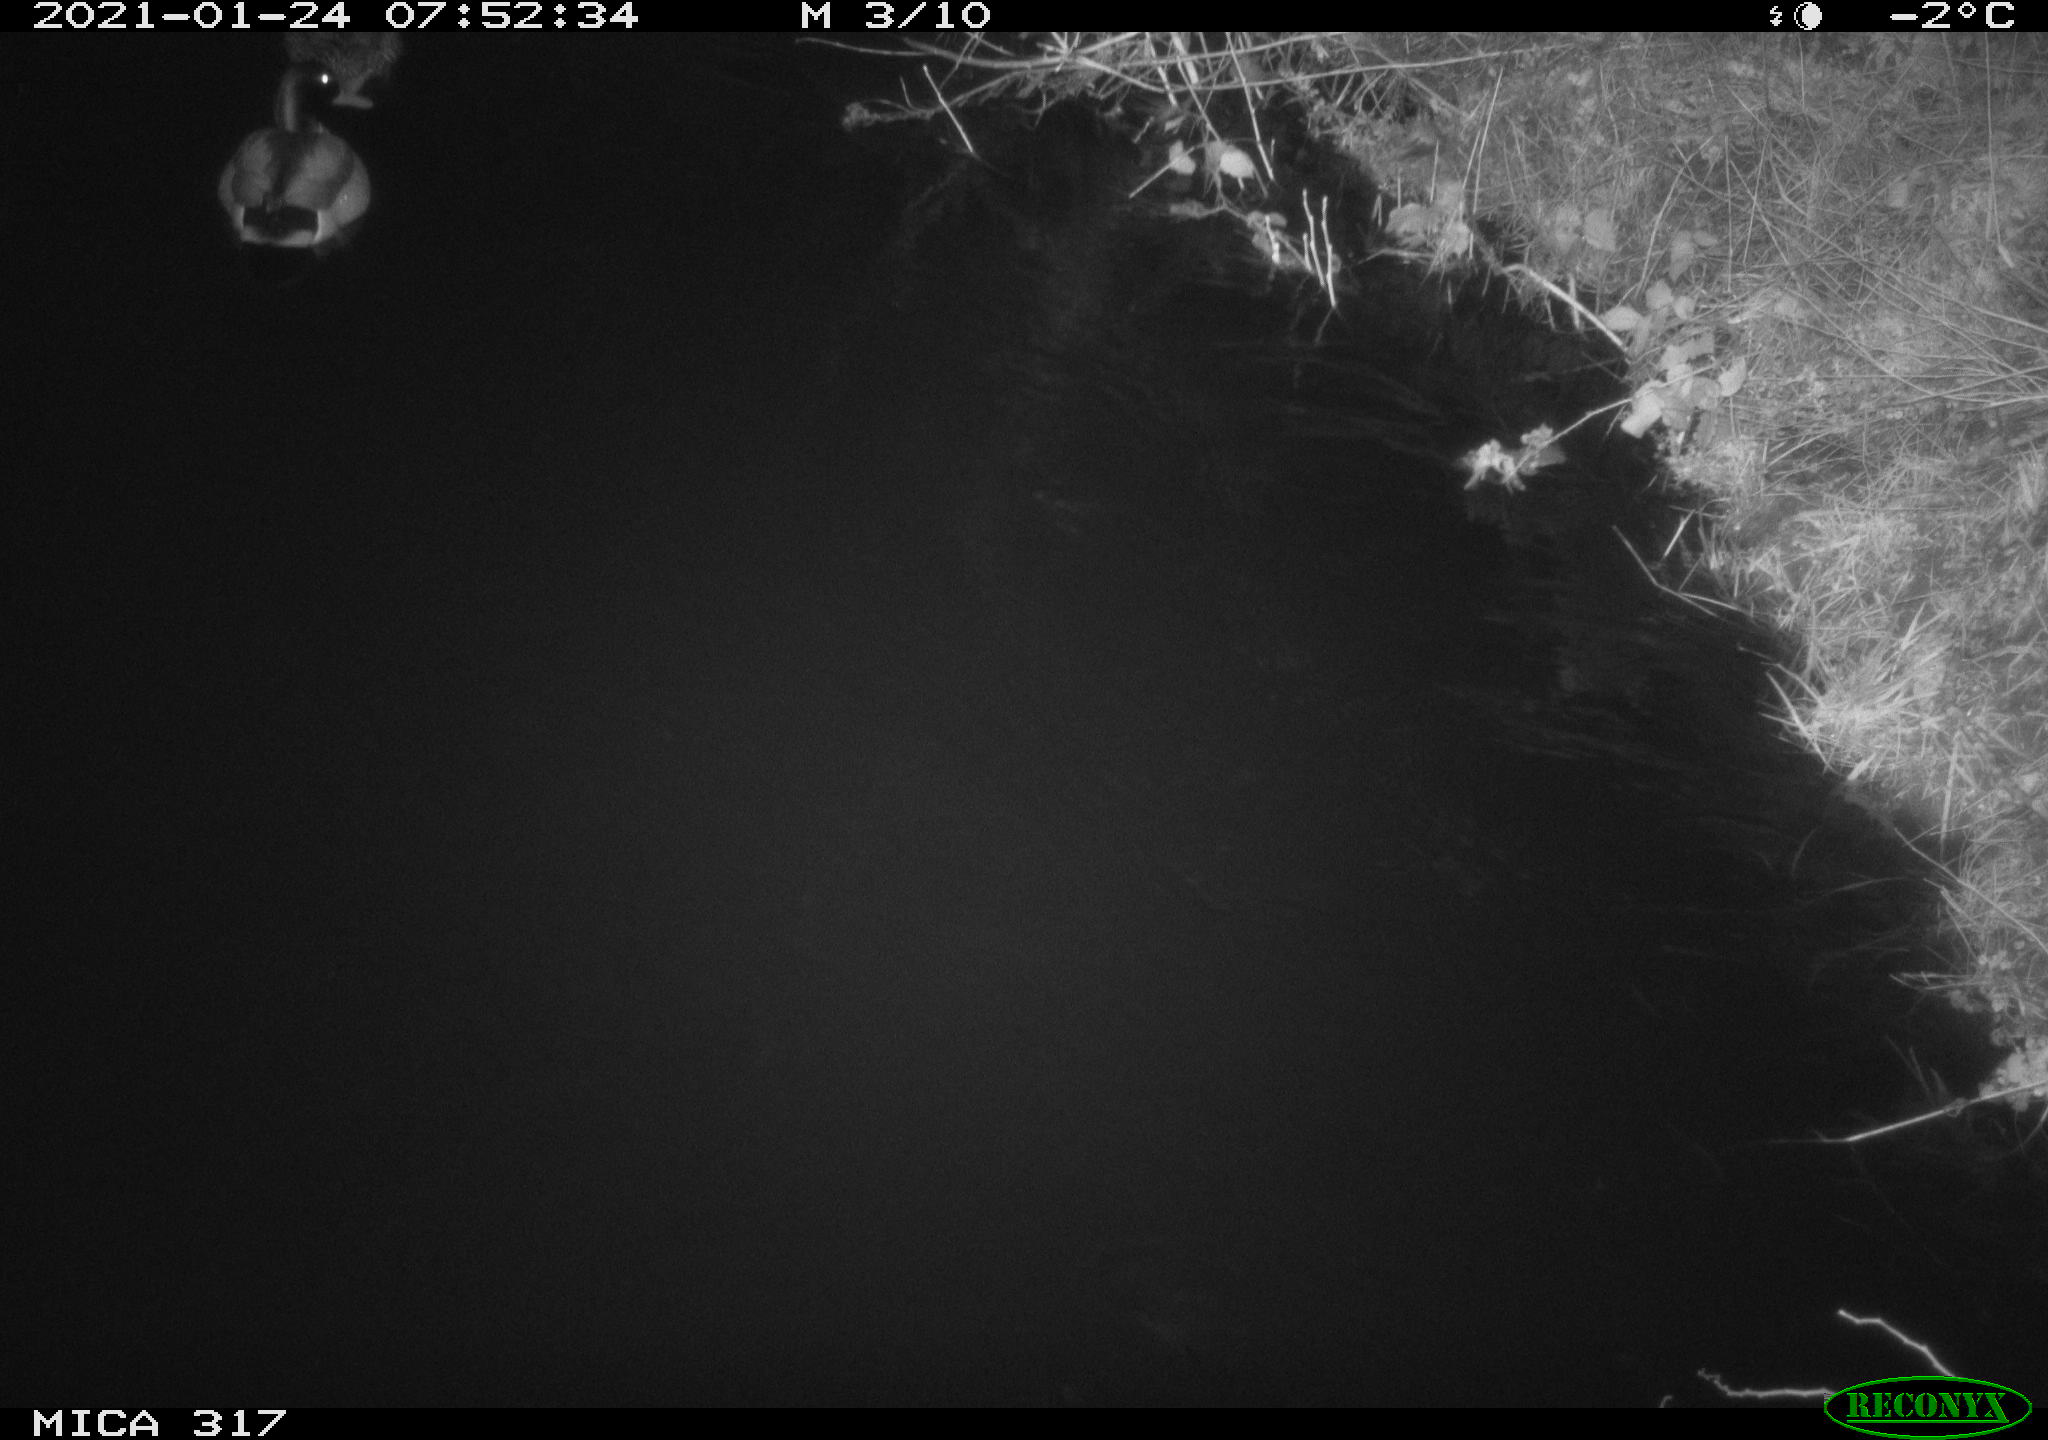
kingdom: Animalia
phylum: Chordata
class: Aves
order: Anseriformes
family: Anatidae
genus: Anas
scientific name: Anas platyrhynchos
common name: Mallard
